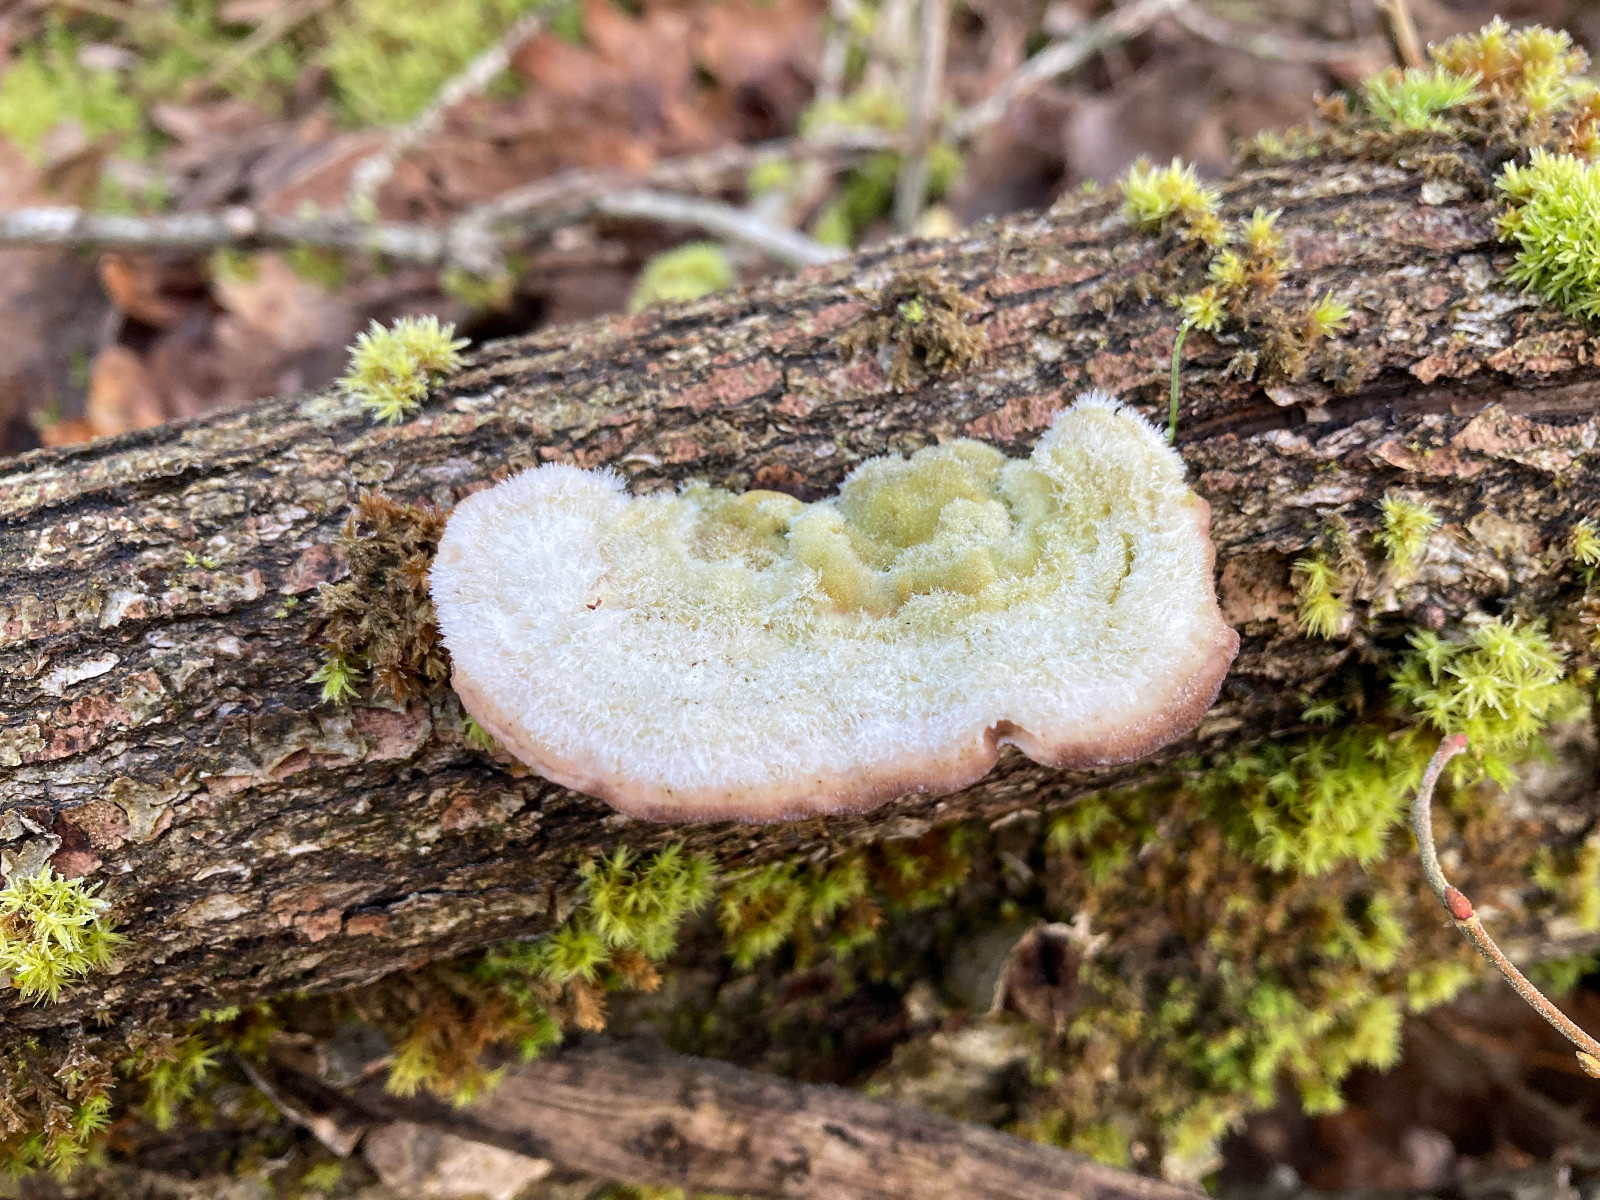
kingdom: Fungi
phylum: Basidiomycota
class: Agaricomycetes
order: Polyporales
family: Polyporaceae
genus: Trametes
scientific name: Trametes hirsuta
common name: håret læderporesvamp
